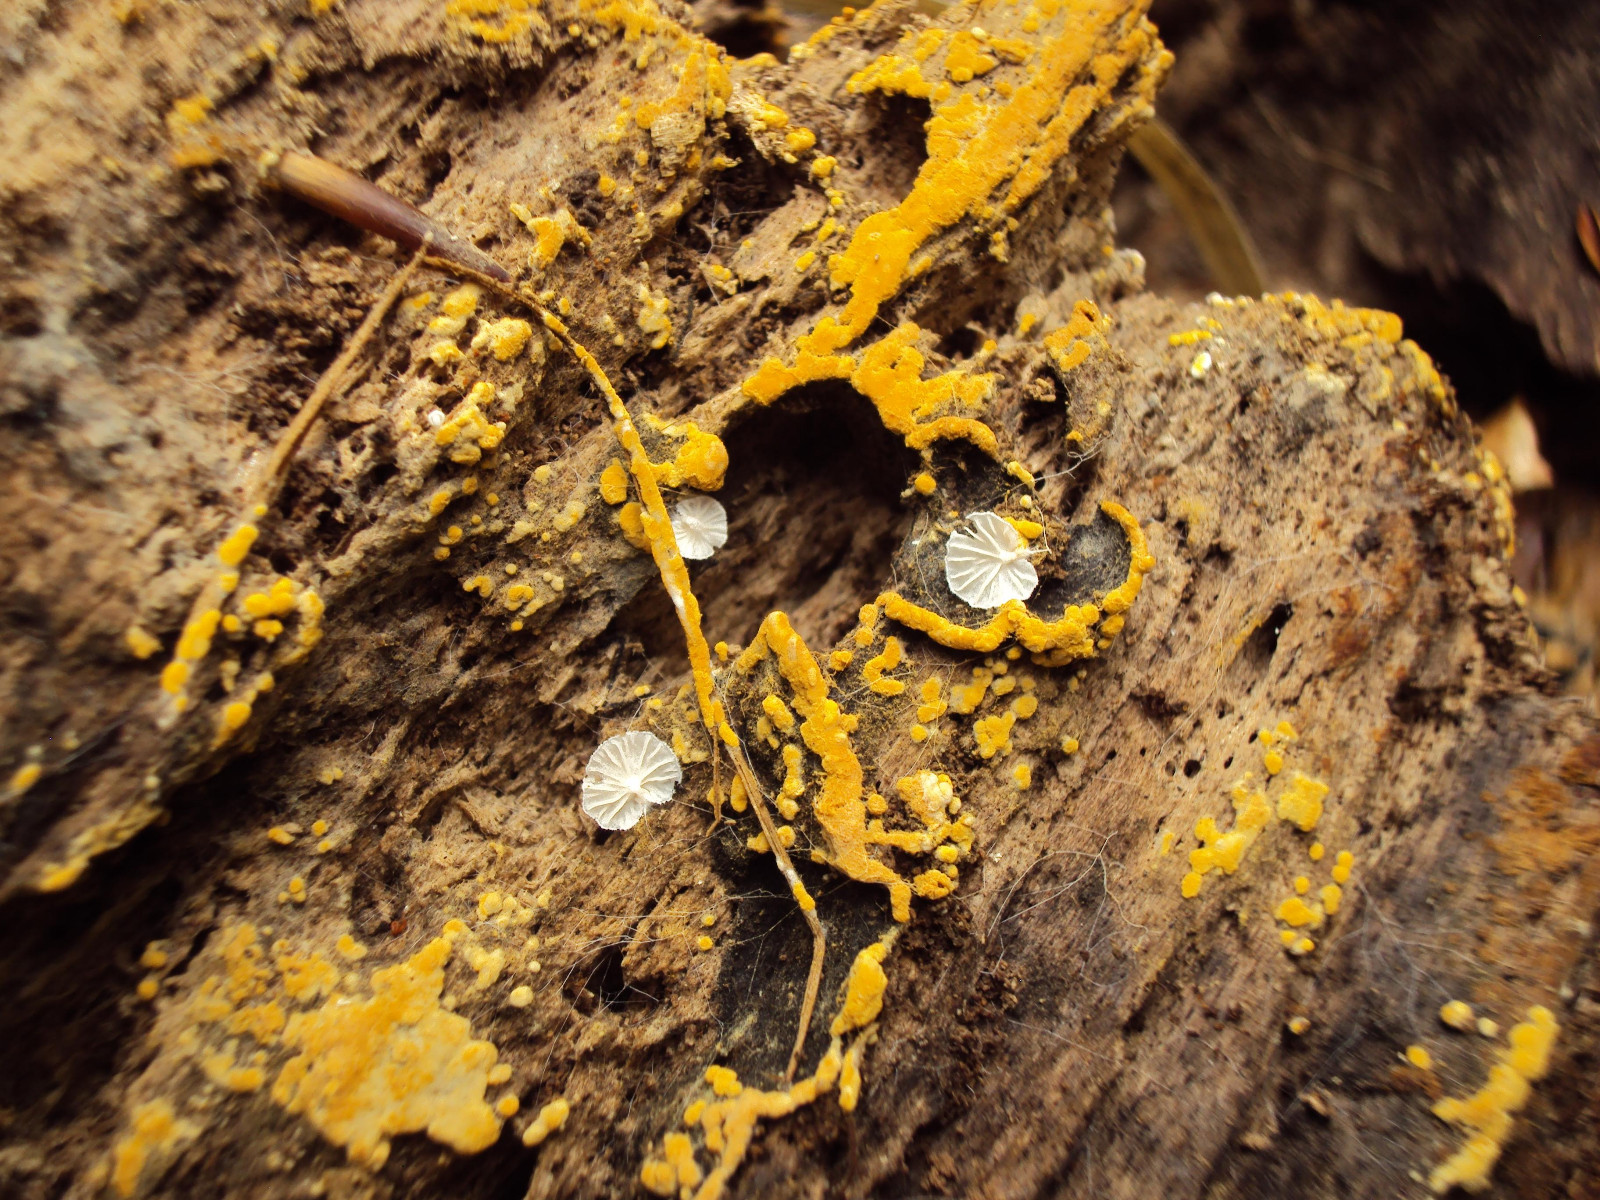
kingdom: Fungi
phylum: Basidiomycota
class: Agaricomycetes
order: Agaricales
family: Entolomataceae
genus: Clitopilus
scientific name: Clitopilus hobsonii
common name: Miller's oysterling
